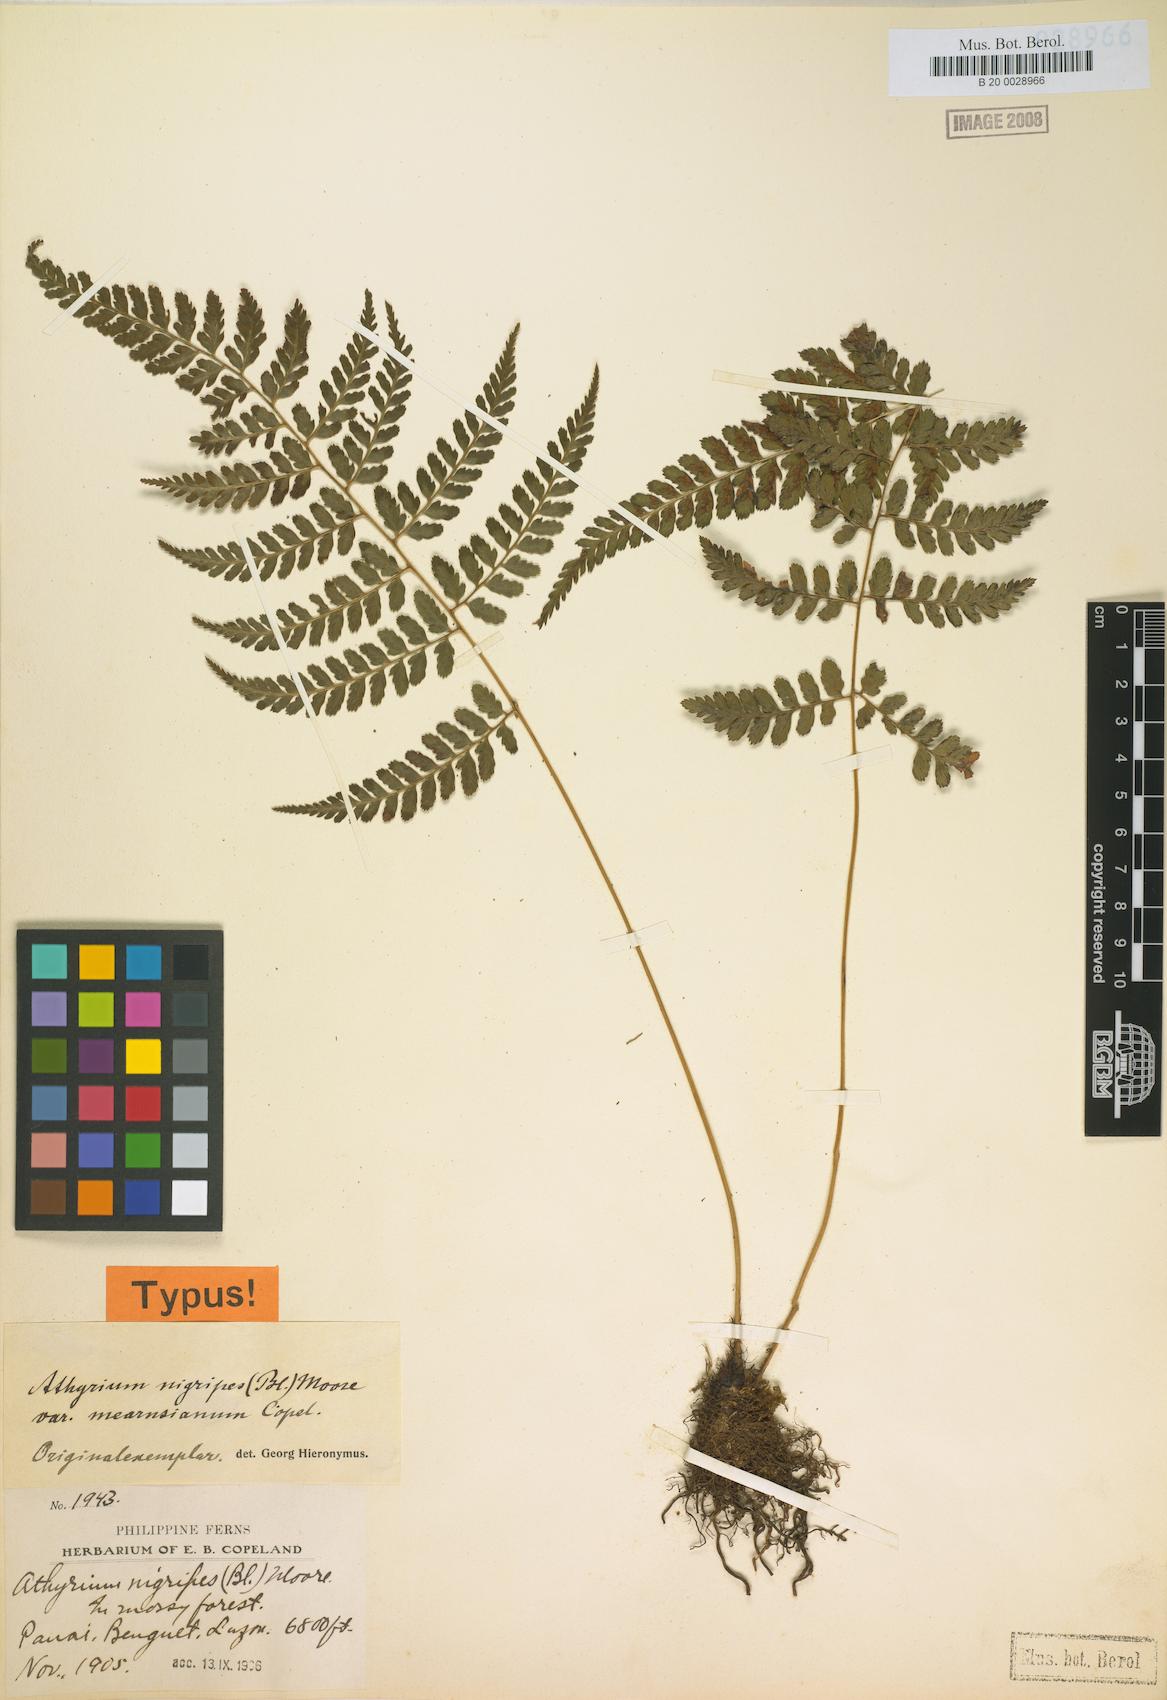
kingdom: Plantae
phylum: Tracheophyta
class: Polypodiopsida
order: Polypodiales
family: Athyriaceae
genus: Athyrium
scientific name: Athyrium nitidulum
